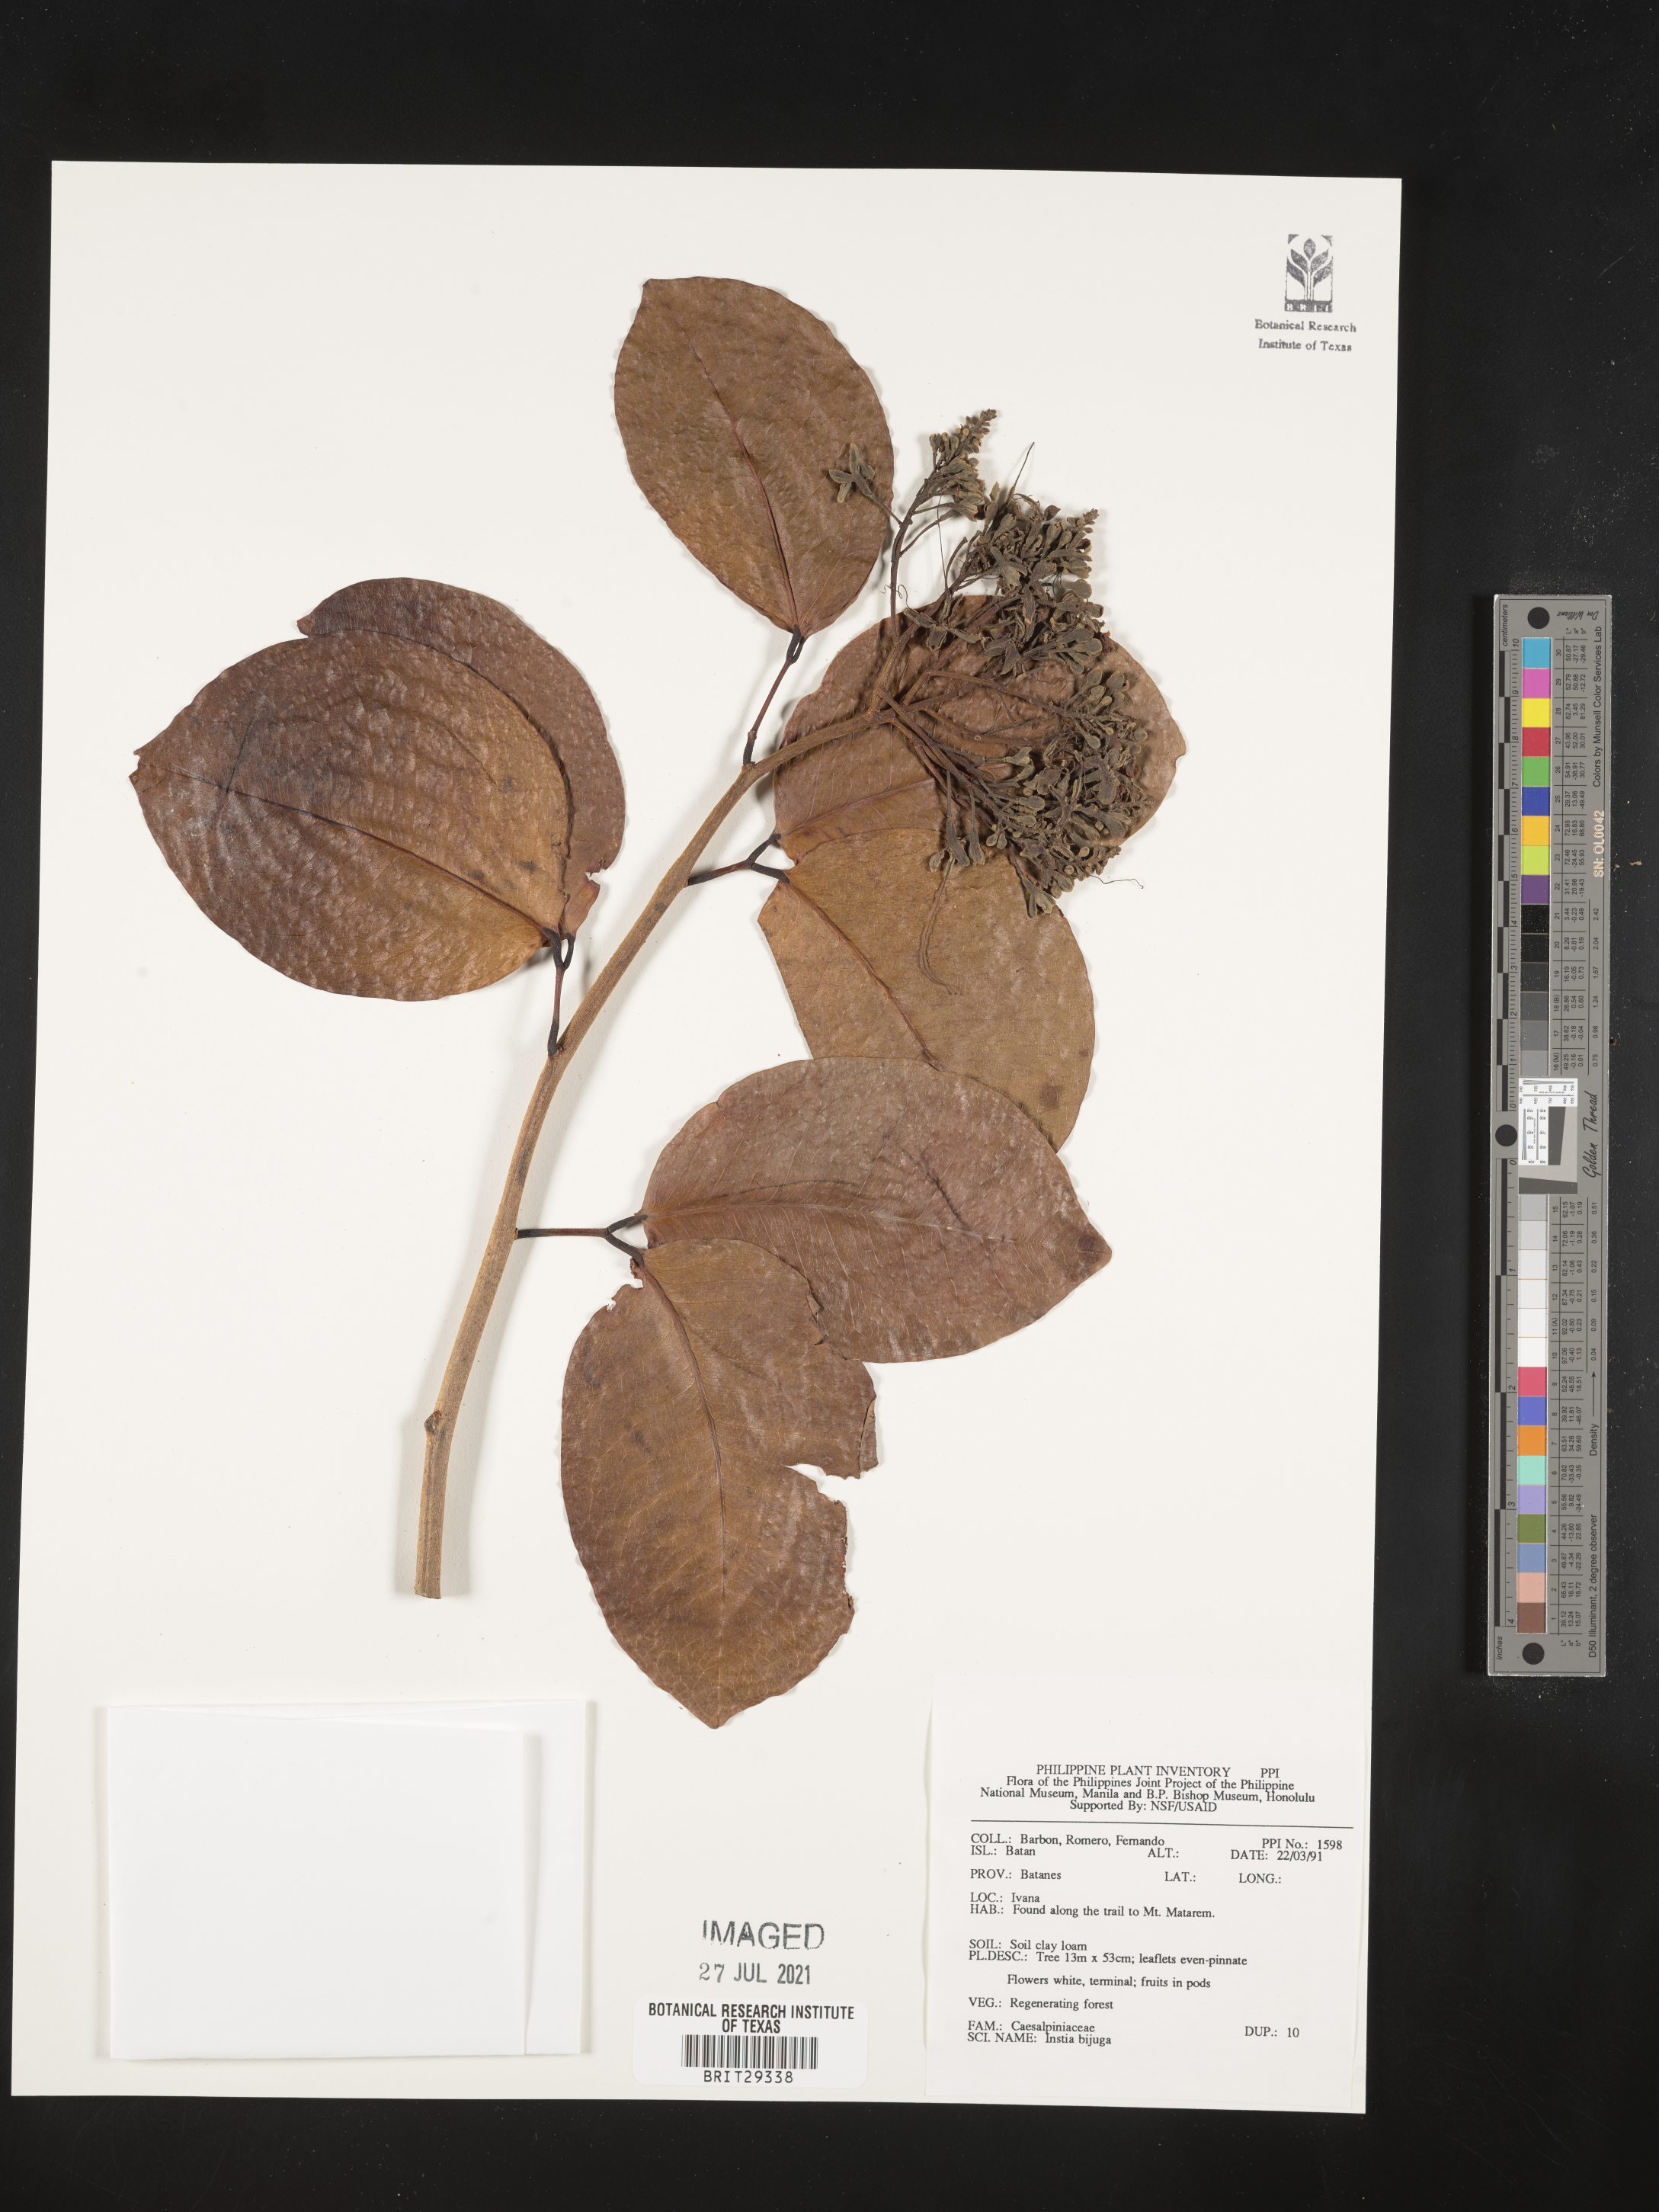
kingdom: Plantae
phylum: Tracheophyta
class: Magnoliopsida
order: Fabales
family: Fabaceae
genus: Intsia
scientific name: Intsia bijuga
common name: Moluccan ironwood
